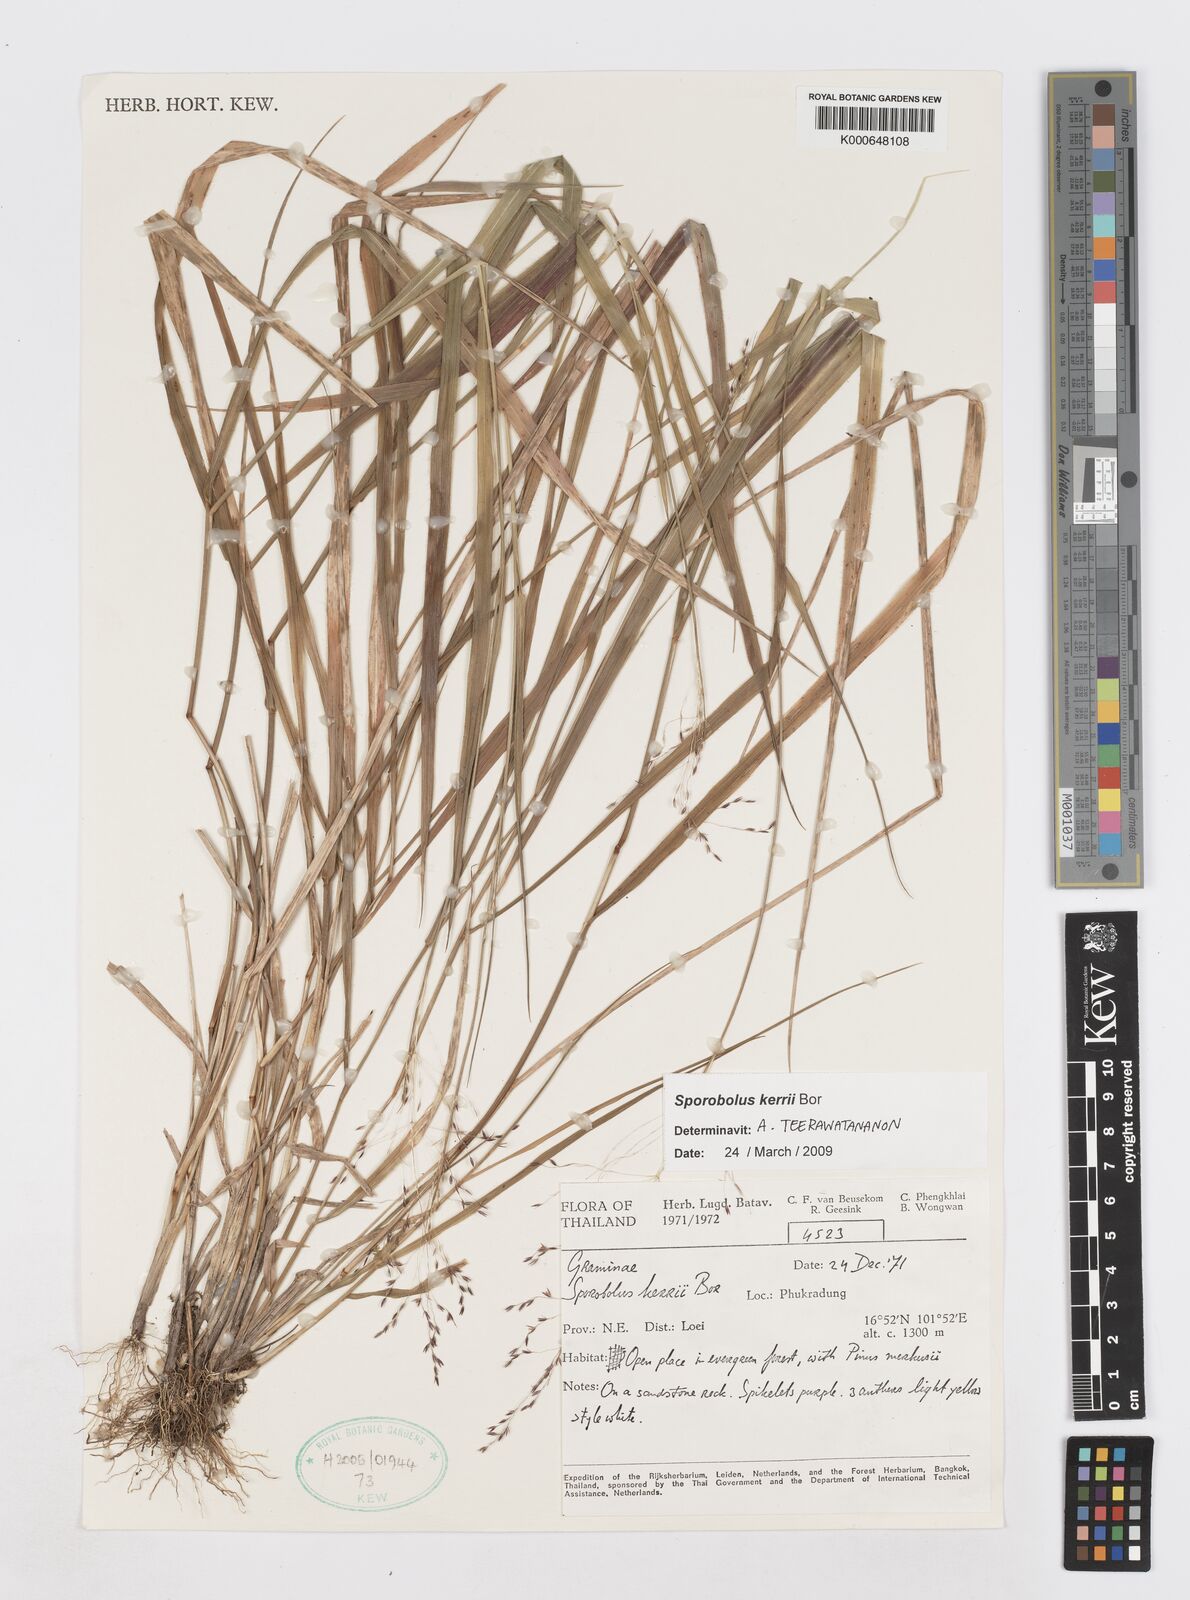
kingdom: Plantae
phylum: Tracheophyta
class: Liliopsida
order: Poales
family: Poaceae
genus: Sporobolus
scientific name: Sporobolus kerrii
